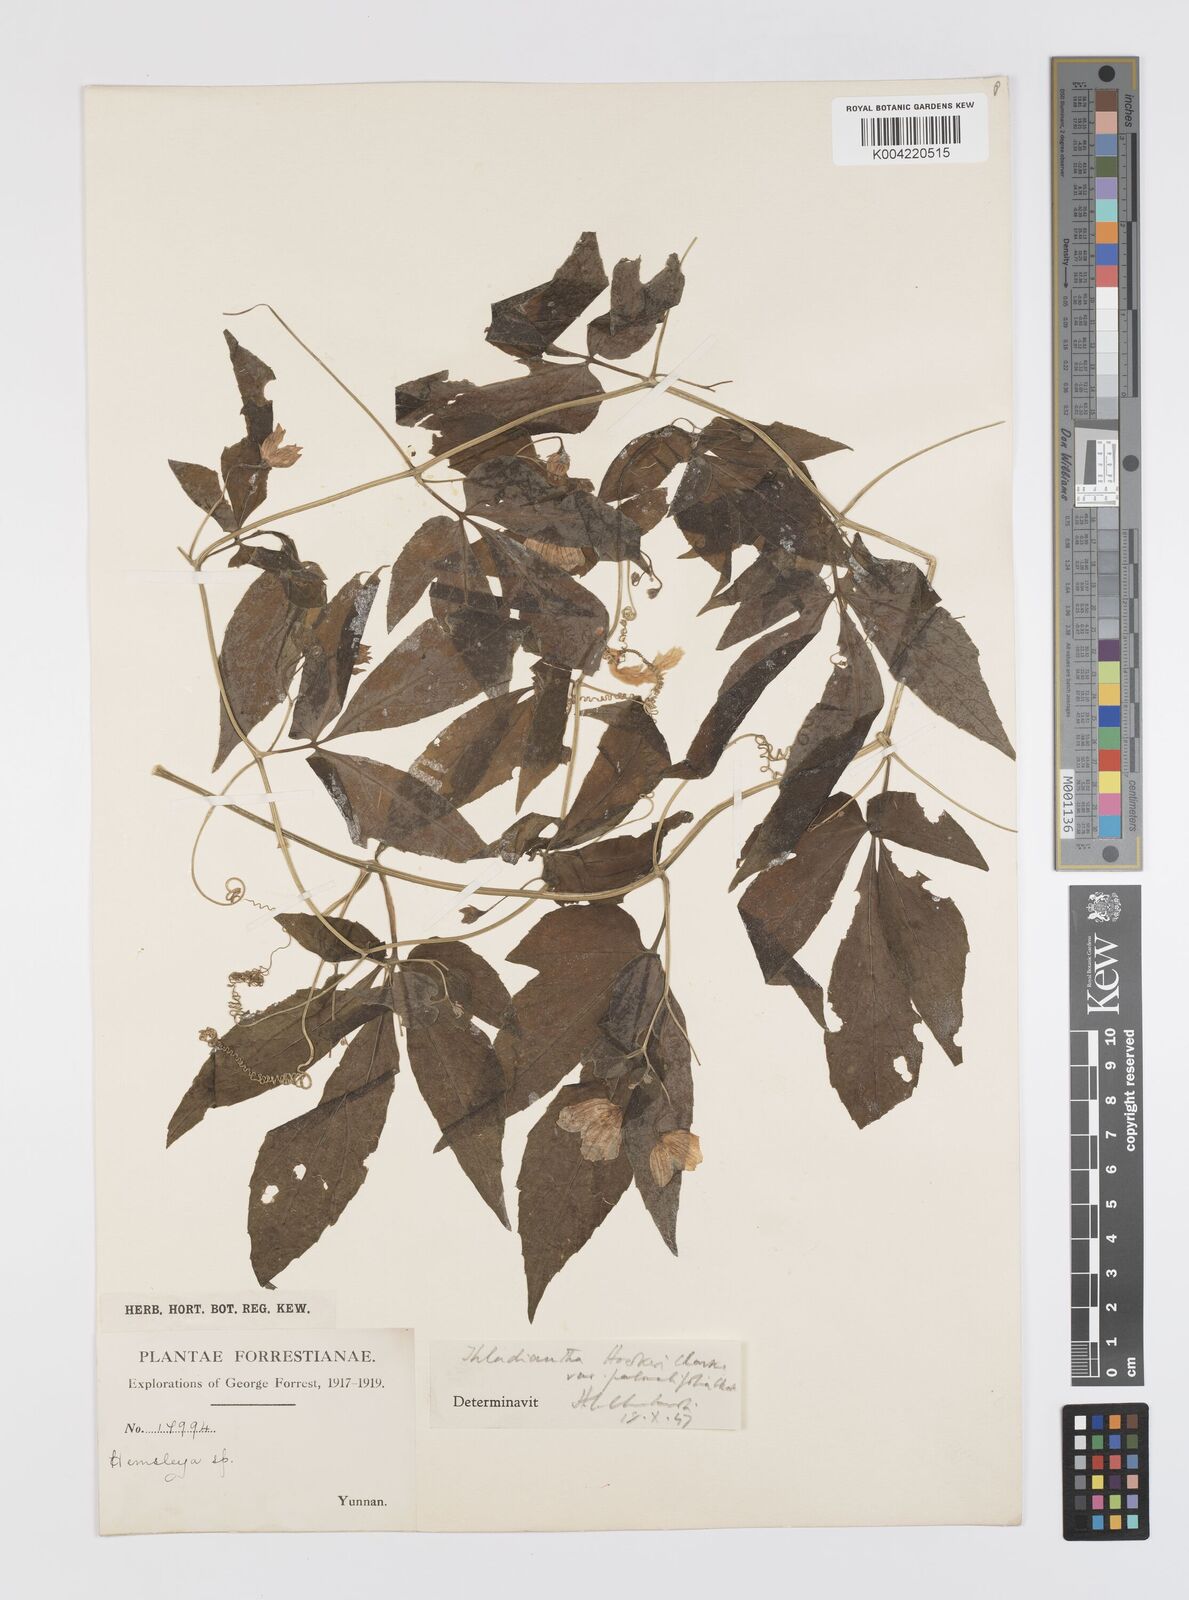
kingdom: Plantae
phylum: Tracheophyta
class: Magnoliopsida
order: Cucurbitales
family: Cucurbitaceae
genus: Thladiantha
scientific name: Thladiantha hookeri
